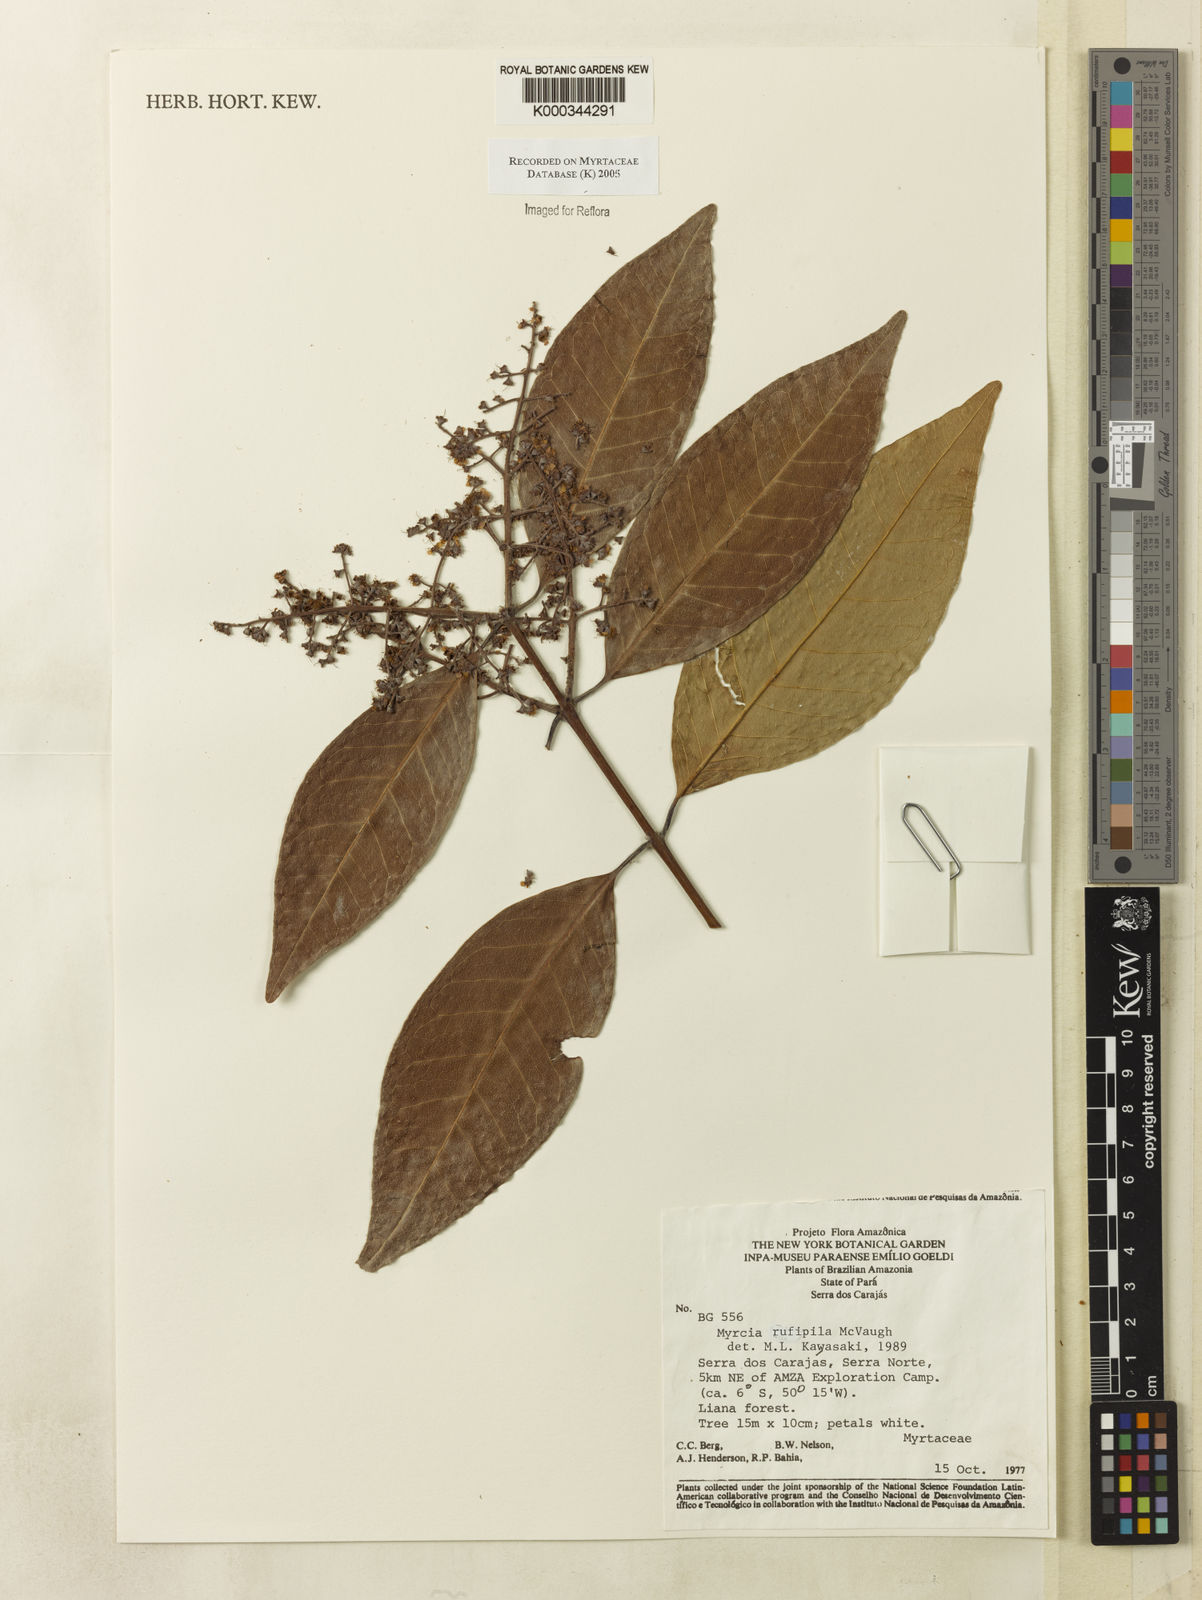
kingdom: Plantae
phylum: Tracheophyta
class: Magnoliopsida
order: Myrtales
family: Myrtaceae
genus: Myrcia
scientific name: Myrcia rufipila
